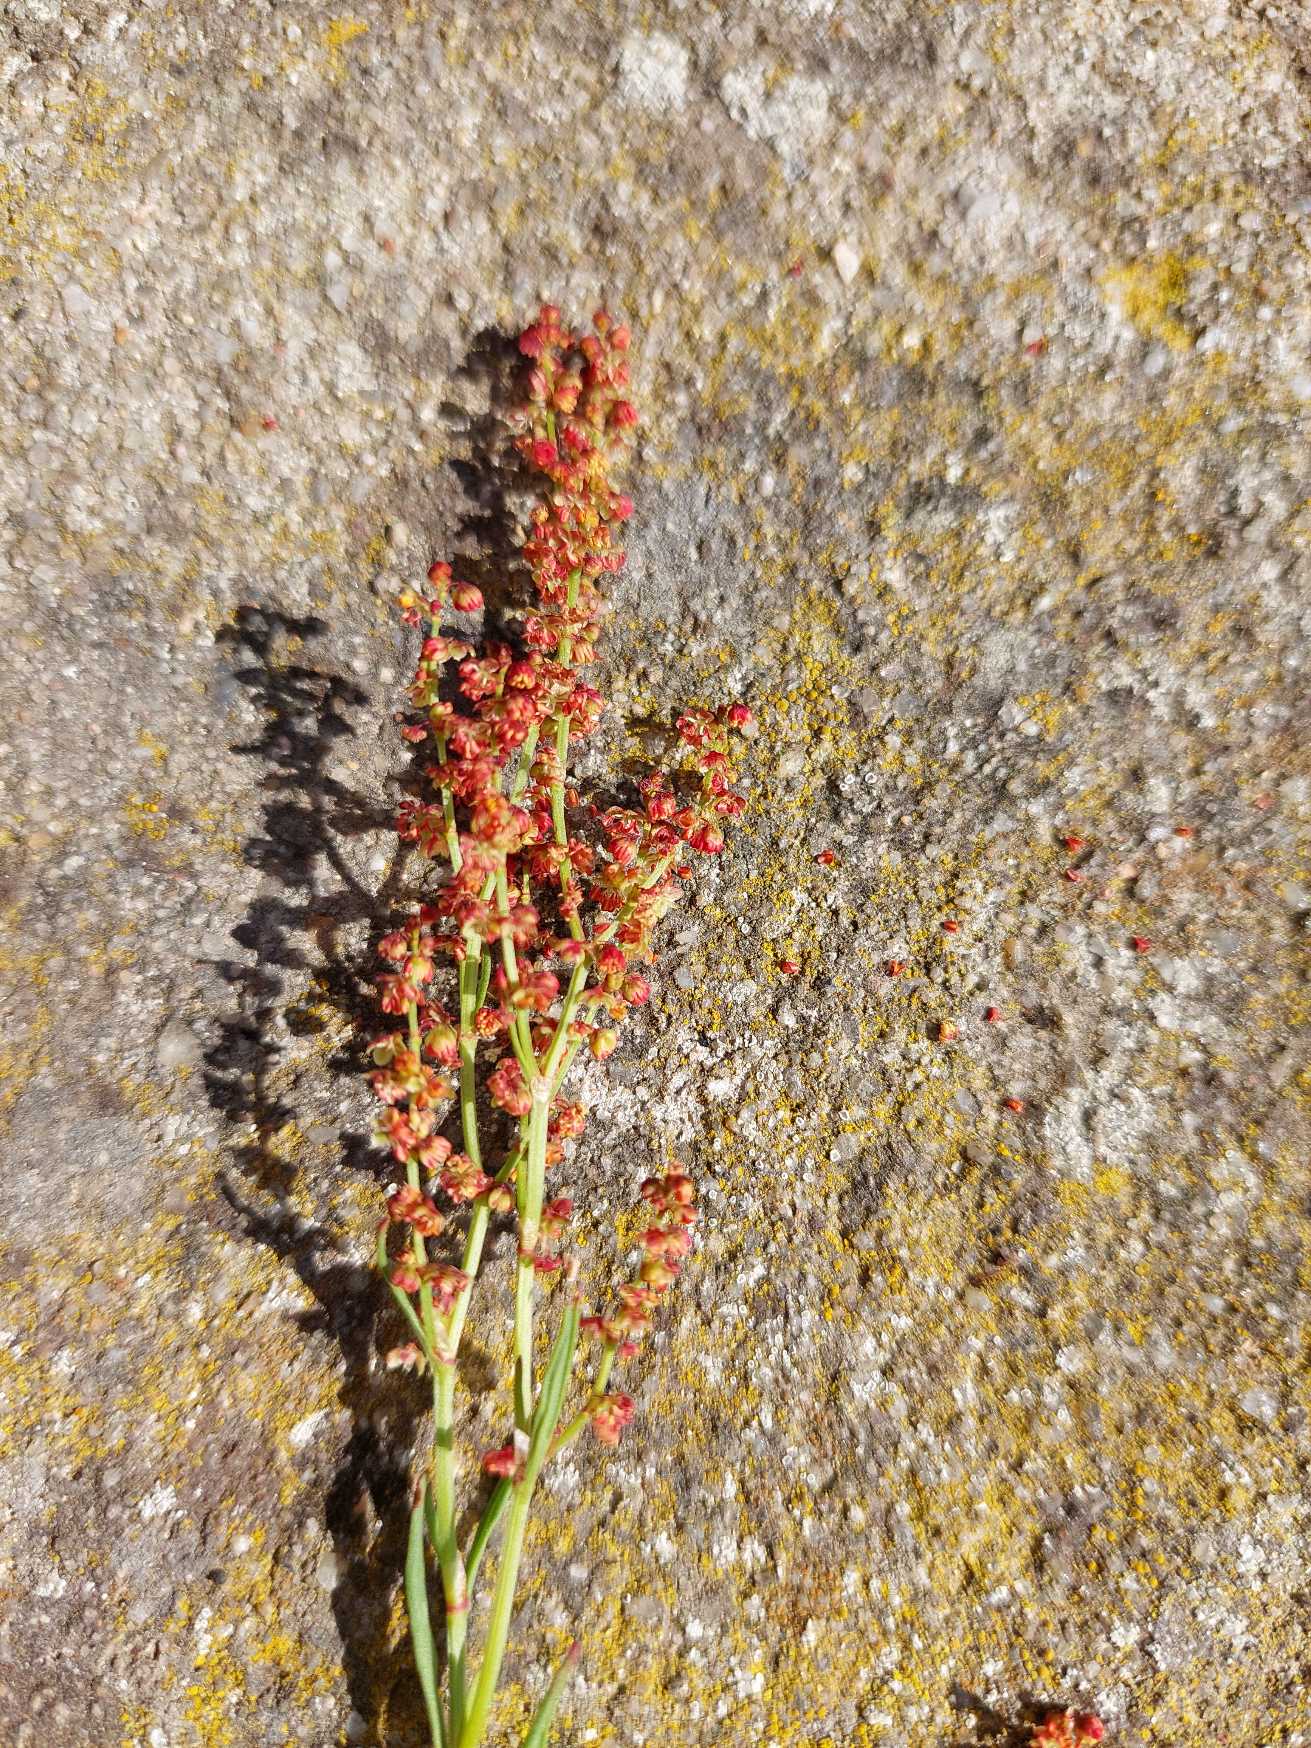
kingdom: Plantae
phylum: Tracheophyta
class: Magnoliopsida
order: Caryophyllales
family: Polygonaceae
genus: Rumex
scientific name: Rumex acetosella
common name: Rødknæ
